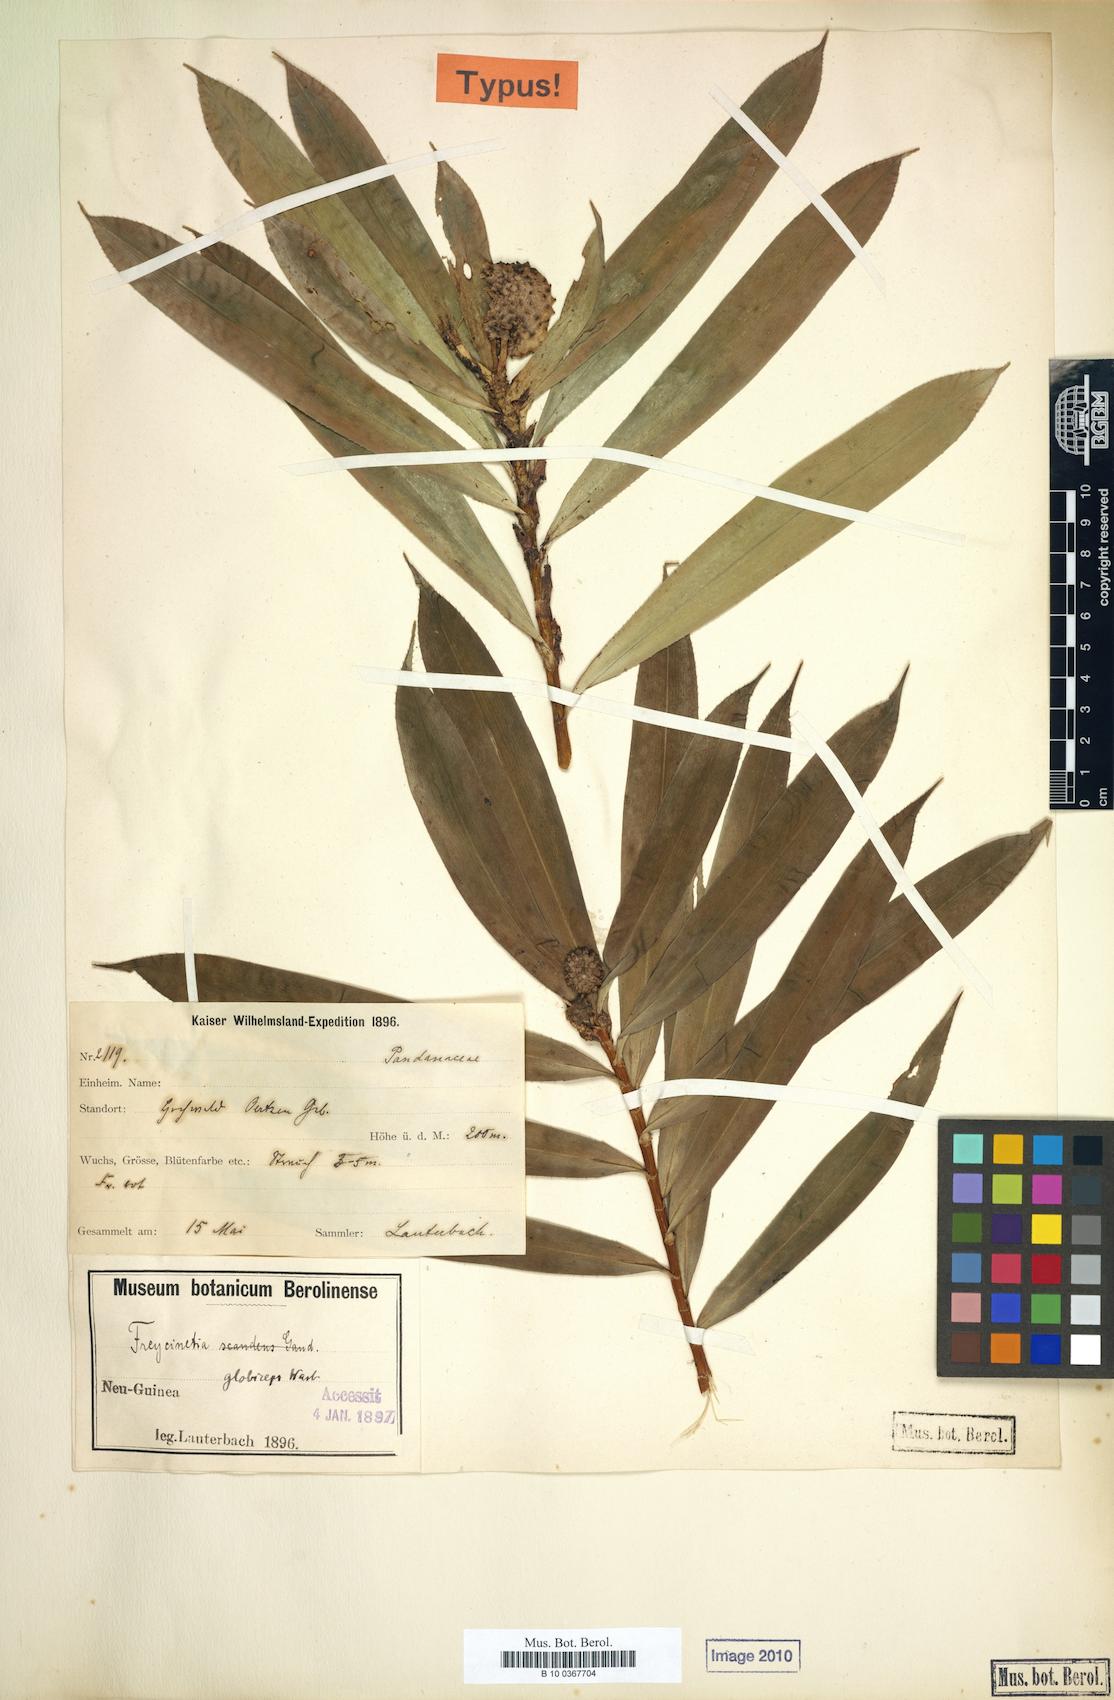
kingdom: Plantae
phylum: Tracheophyta
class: Liliopsida
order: Pandanales
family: Pandanaceae
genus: Freycinetia
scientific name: Freycinetia beccarii
